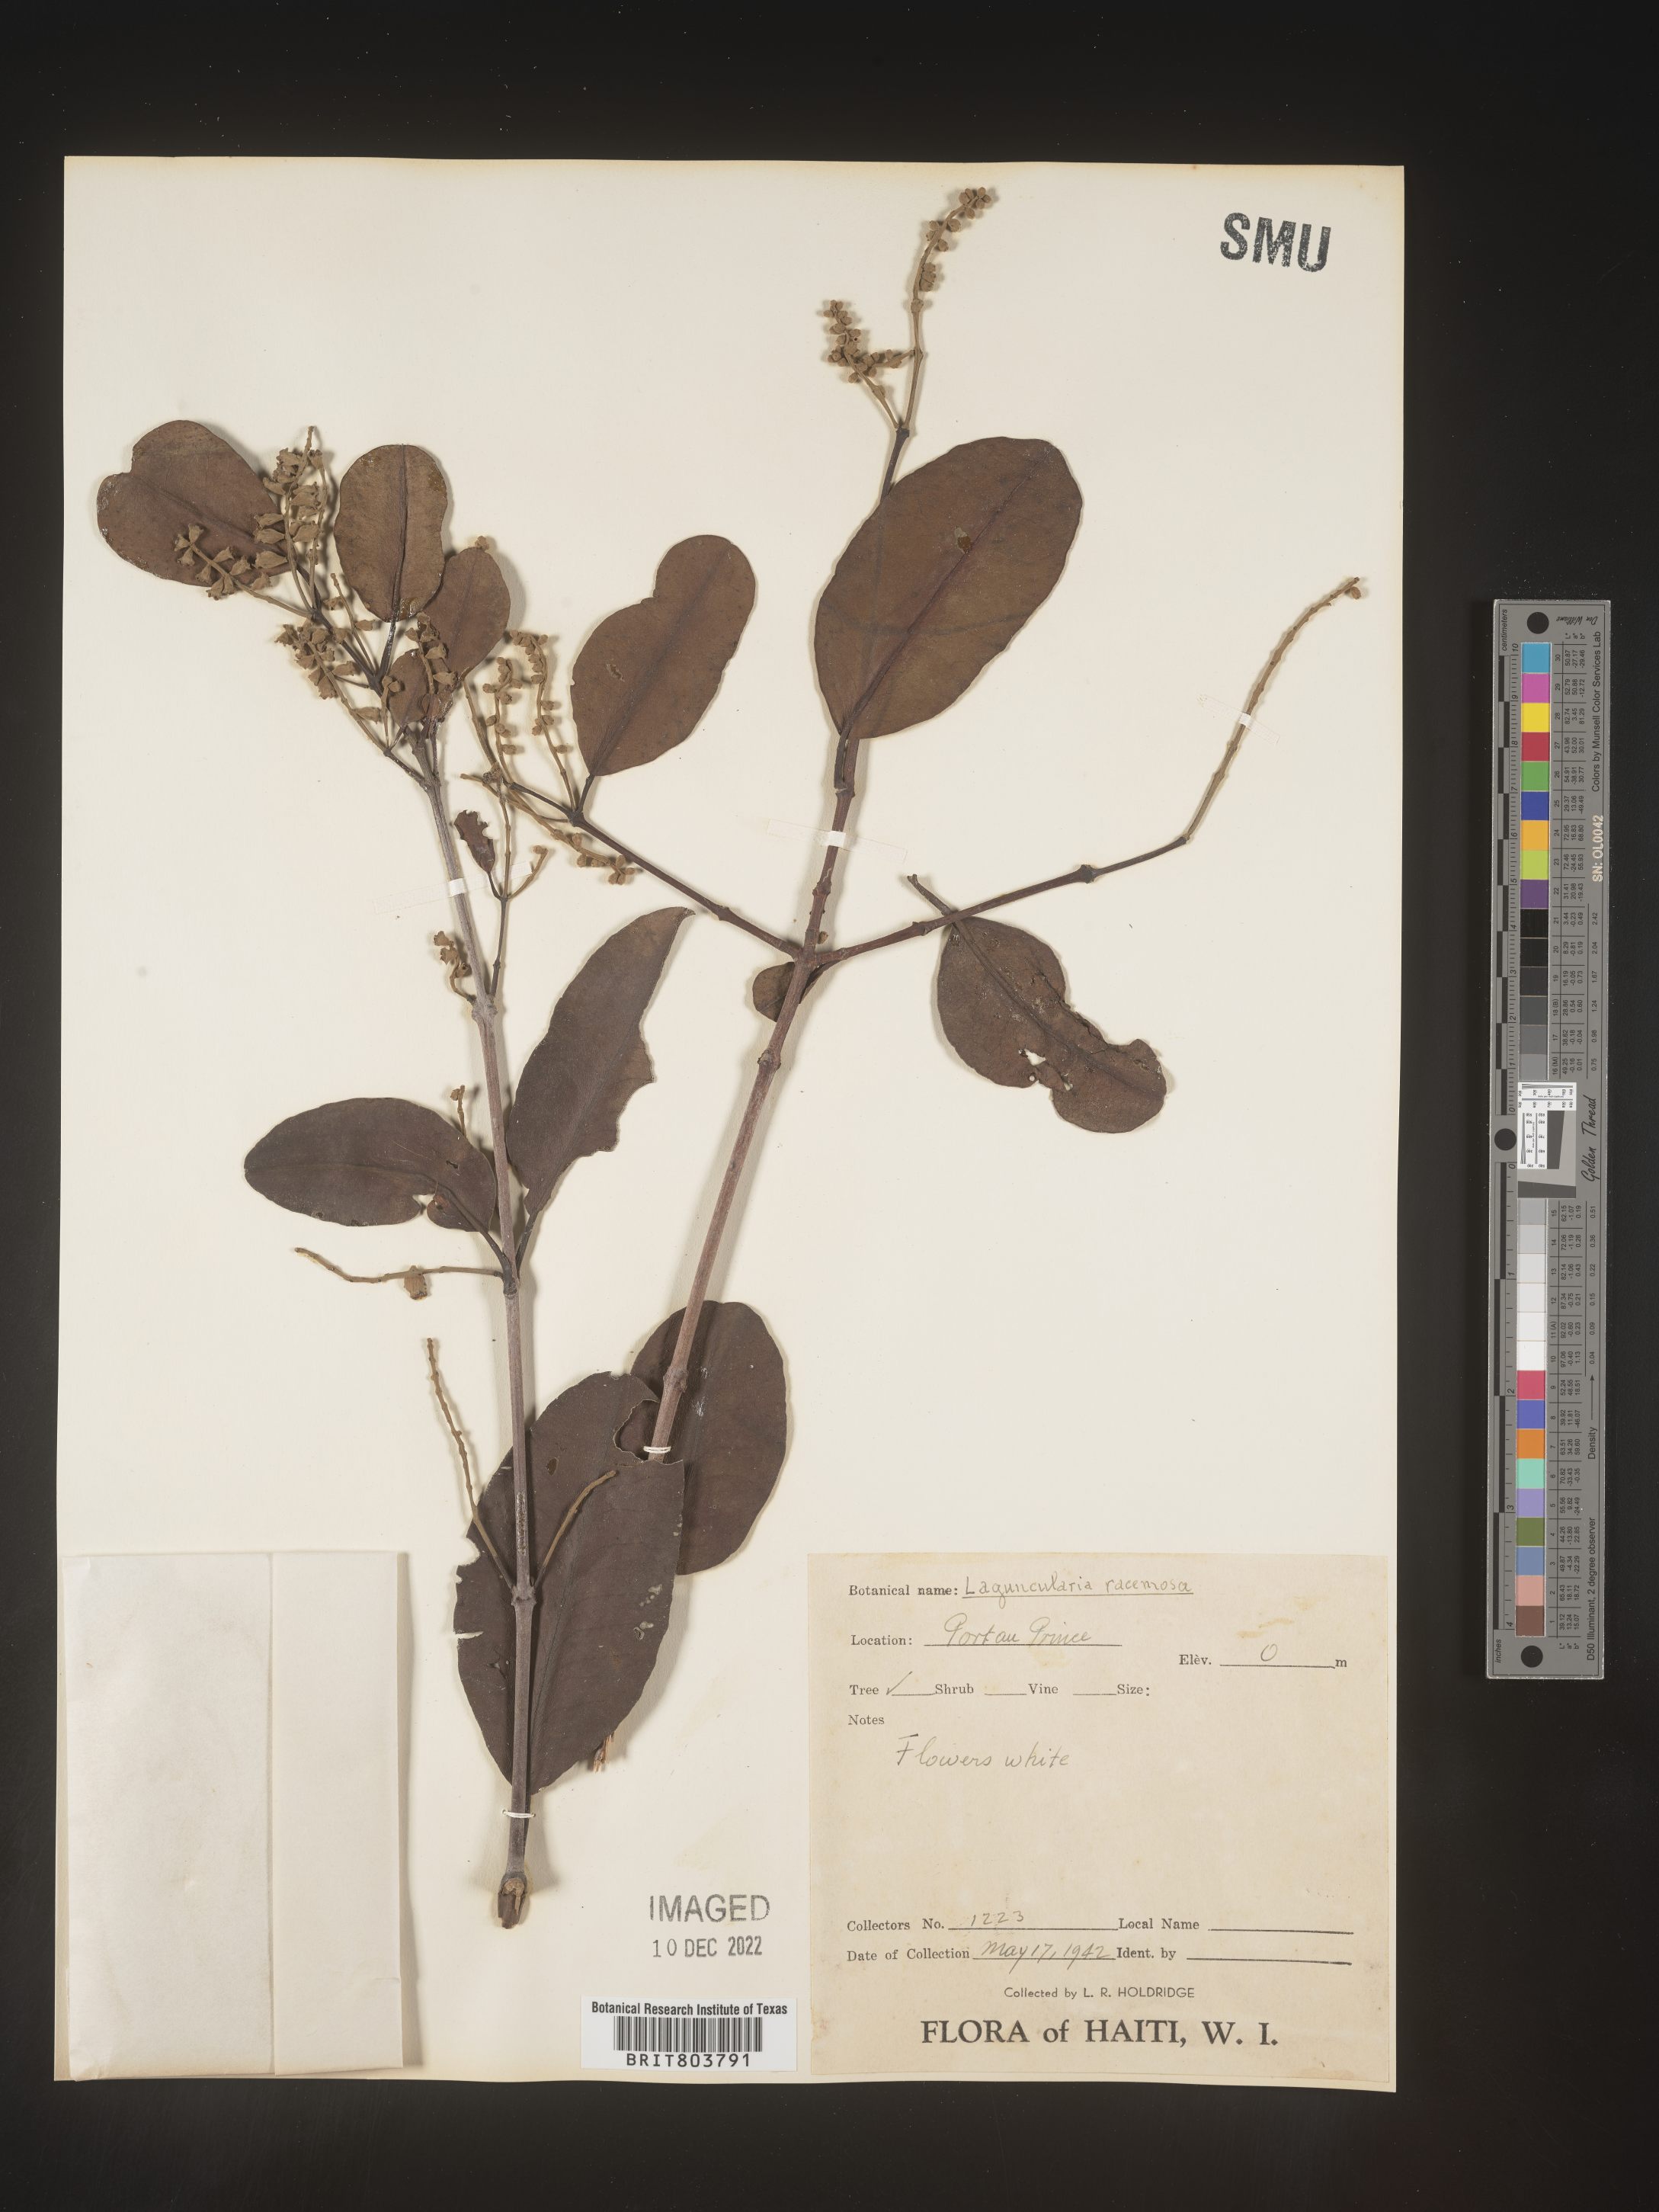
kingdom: Plantae
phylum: Tracheophyta
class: Magnoliopsida
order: Myrtales
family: Combretaceae
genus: Laguncularia
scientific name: Laguncularia
